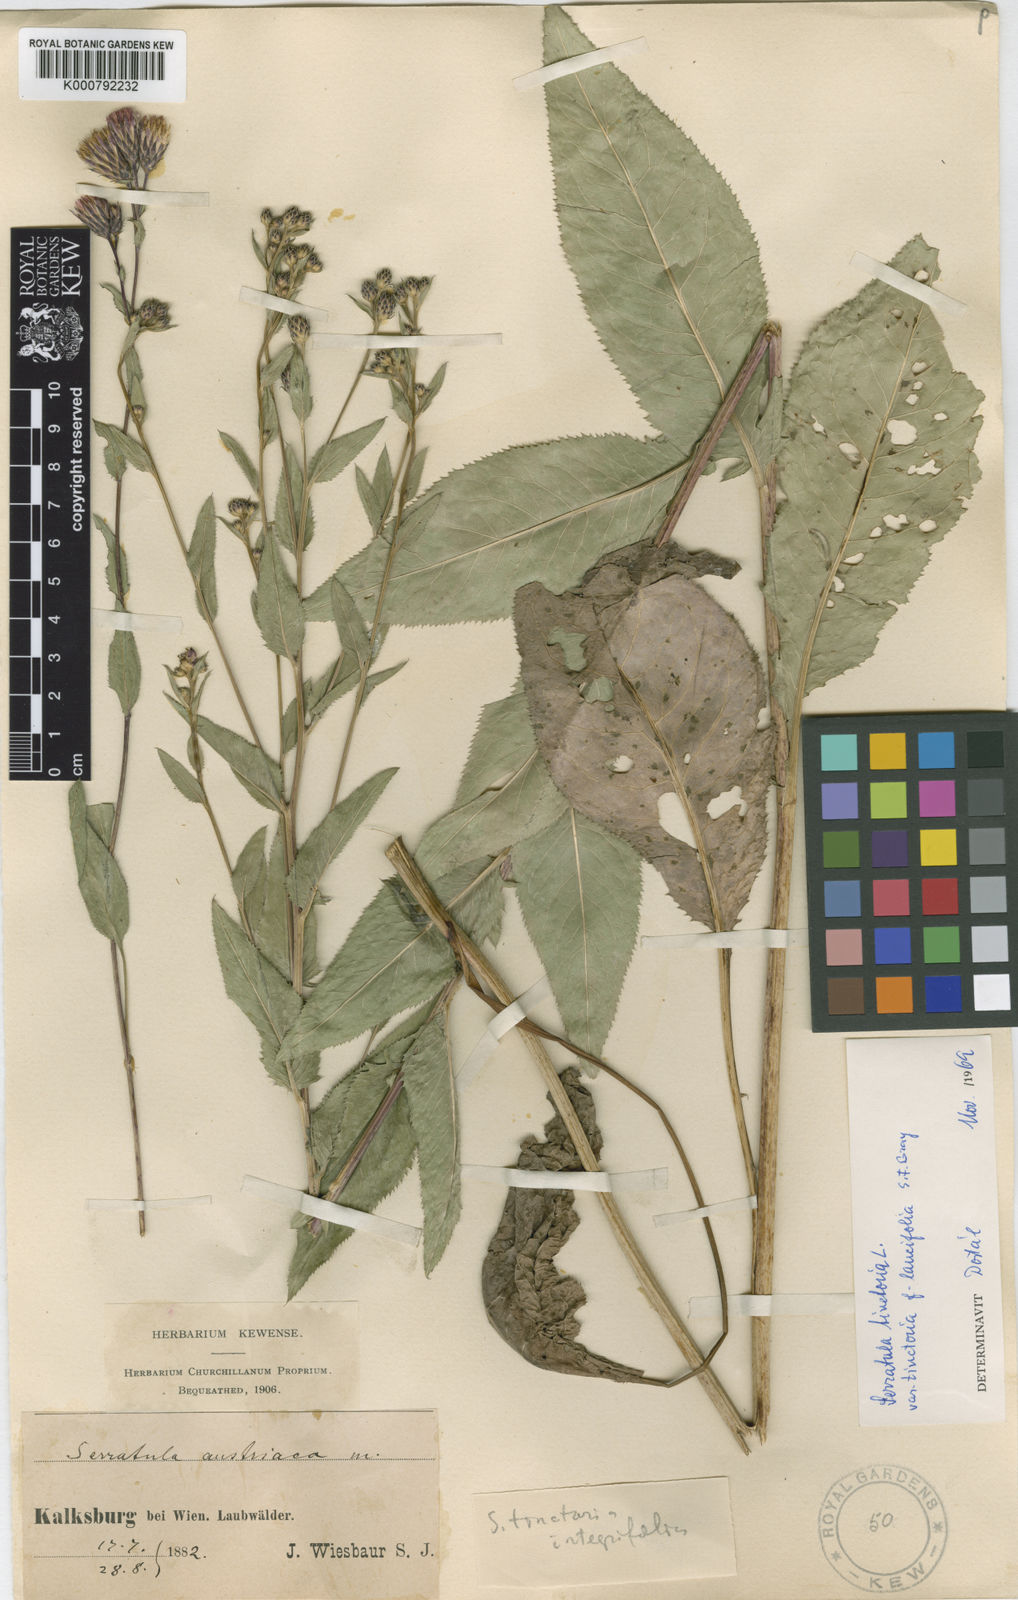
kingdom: Plantae
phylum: Tracheophyta
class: Magnoliopsida
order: Asterales
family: Asteraceae
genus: Serratula
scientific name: Serratula tinctoria
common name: Saw-wort
